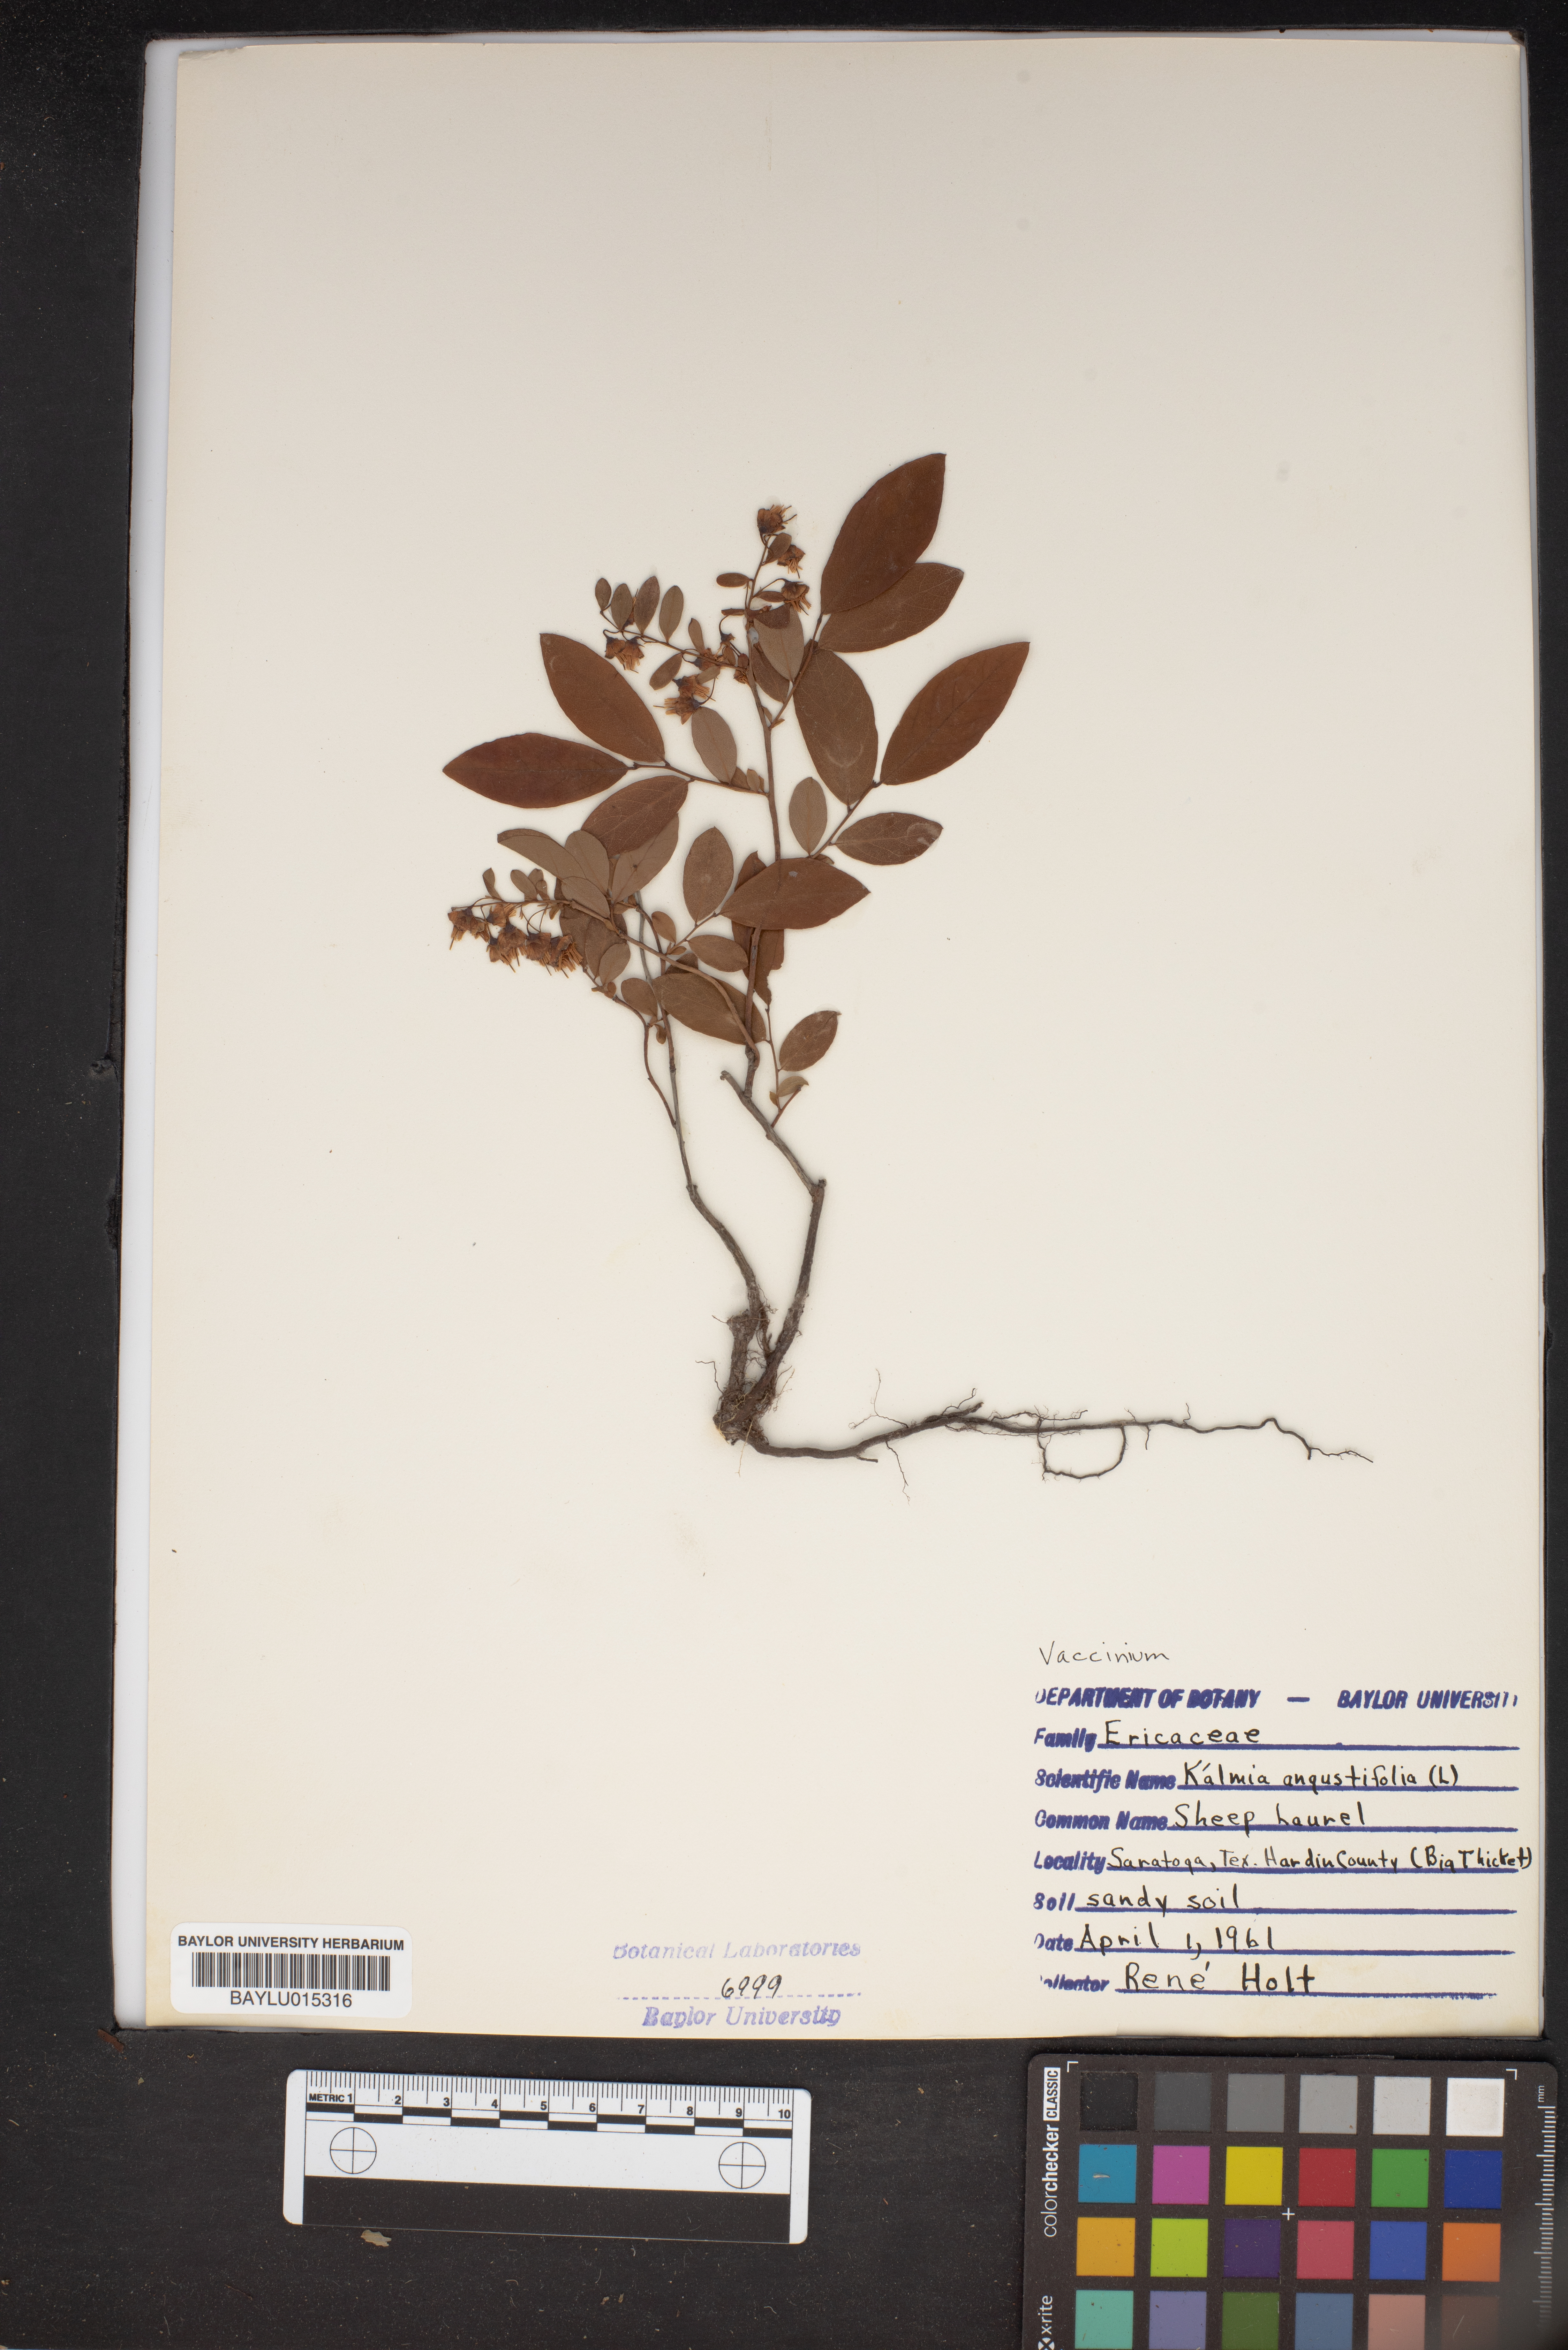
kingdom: Plantae
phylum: Tracheophyta
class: Magnoliopsida
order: Ericales
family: Ericaceae
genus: Kalmia
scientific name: Kalmia angustifolia
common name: Sheep-laurel
